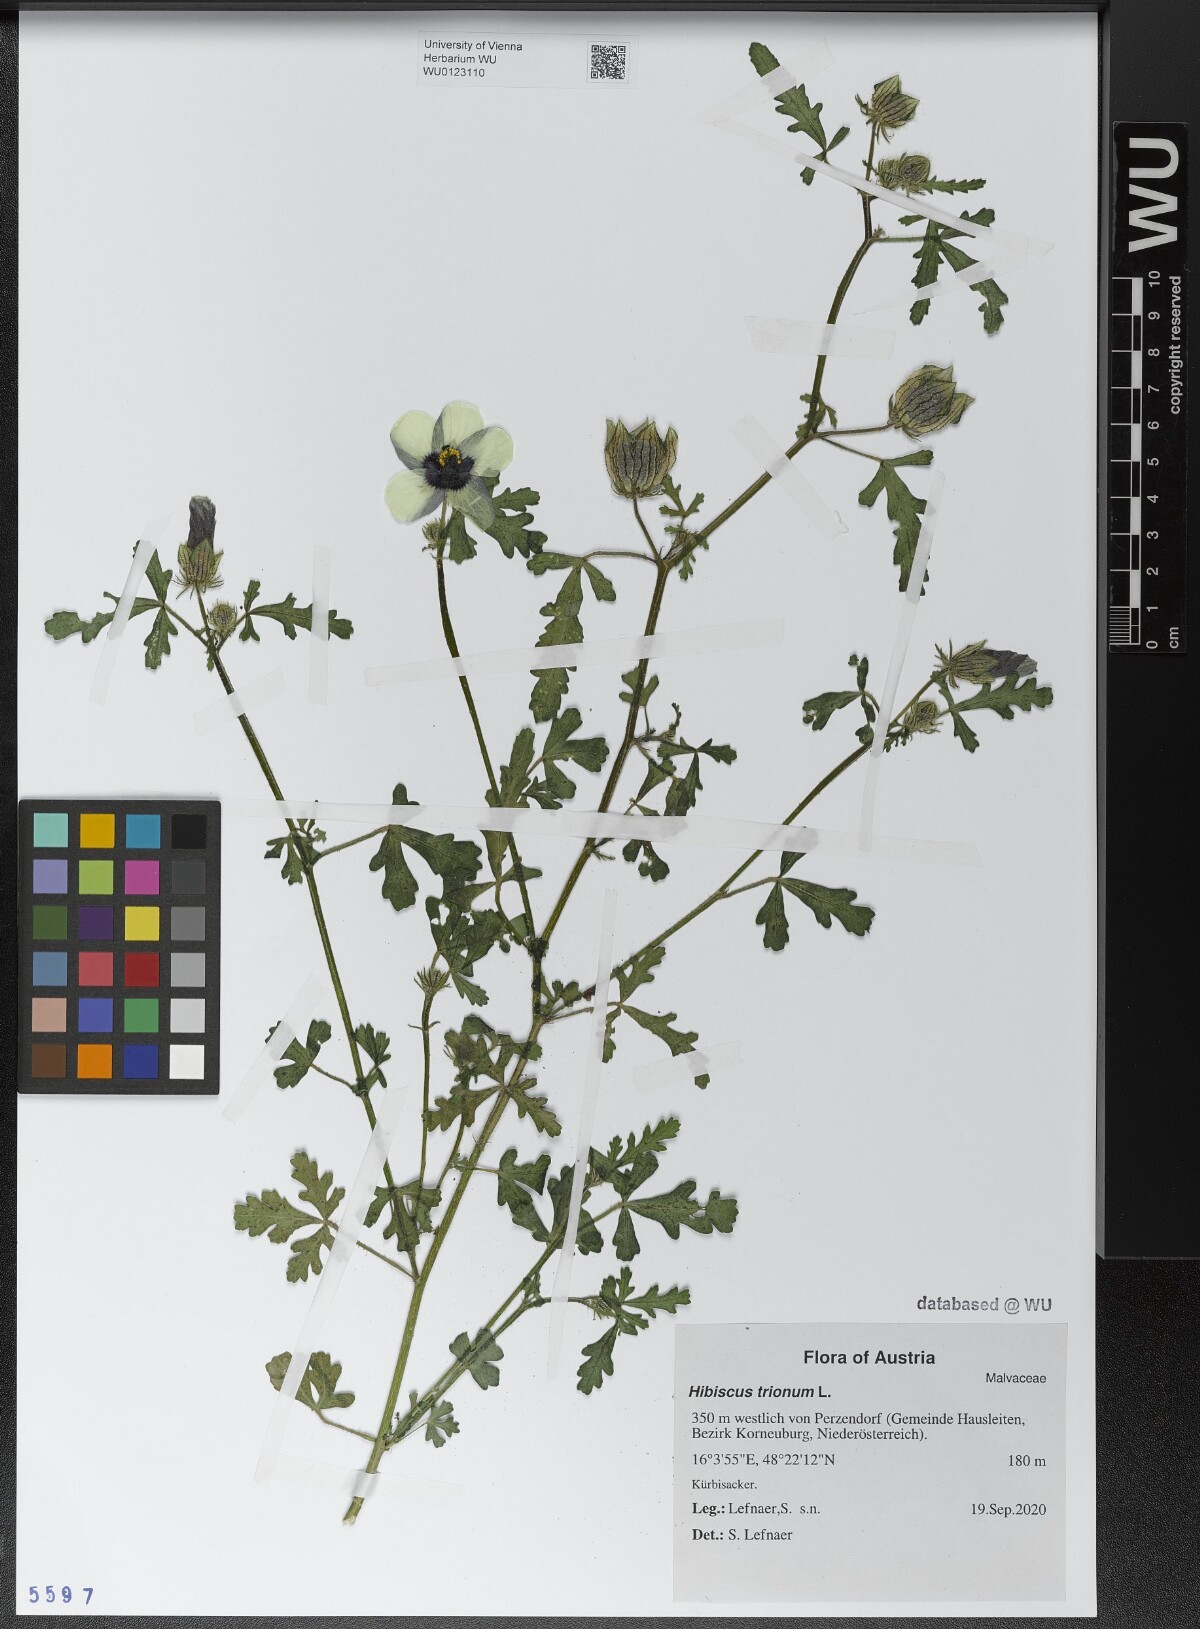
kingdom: Plantae
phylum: Tracheophyta
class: Magnoliopsida
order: Malvales
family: Malvaceae
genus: Hibiscus
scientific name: Hibiscus trionum
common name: Bladder ketmia
